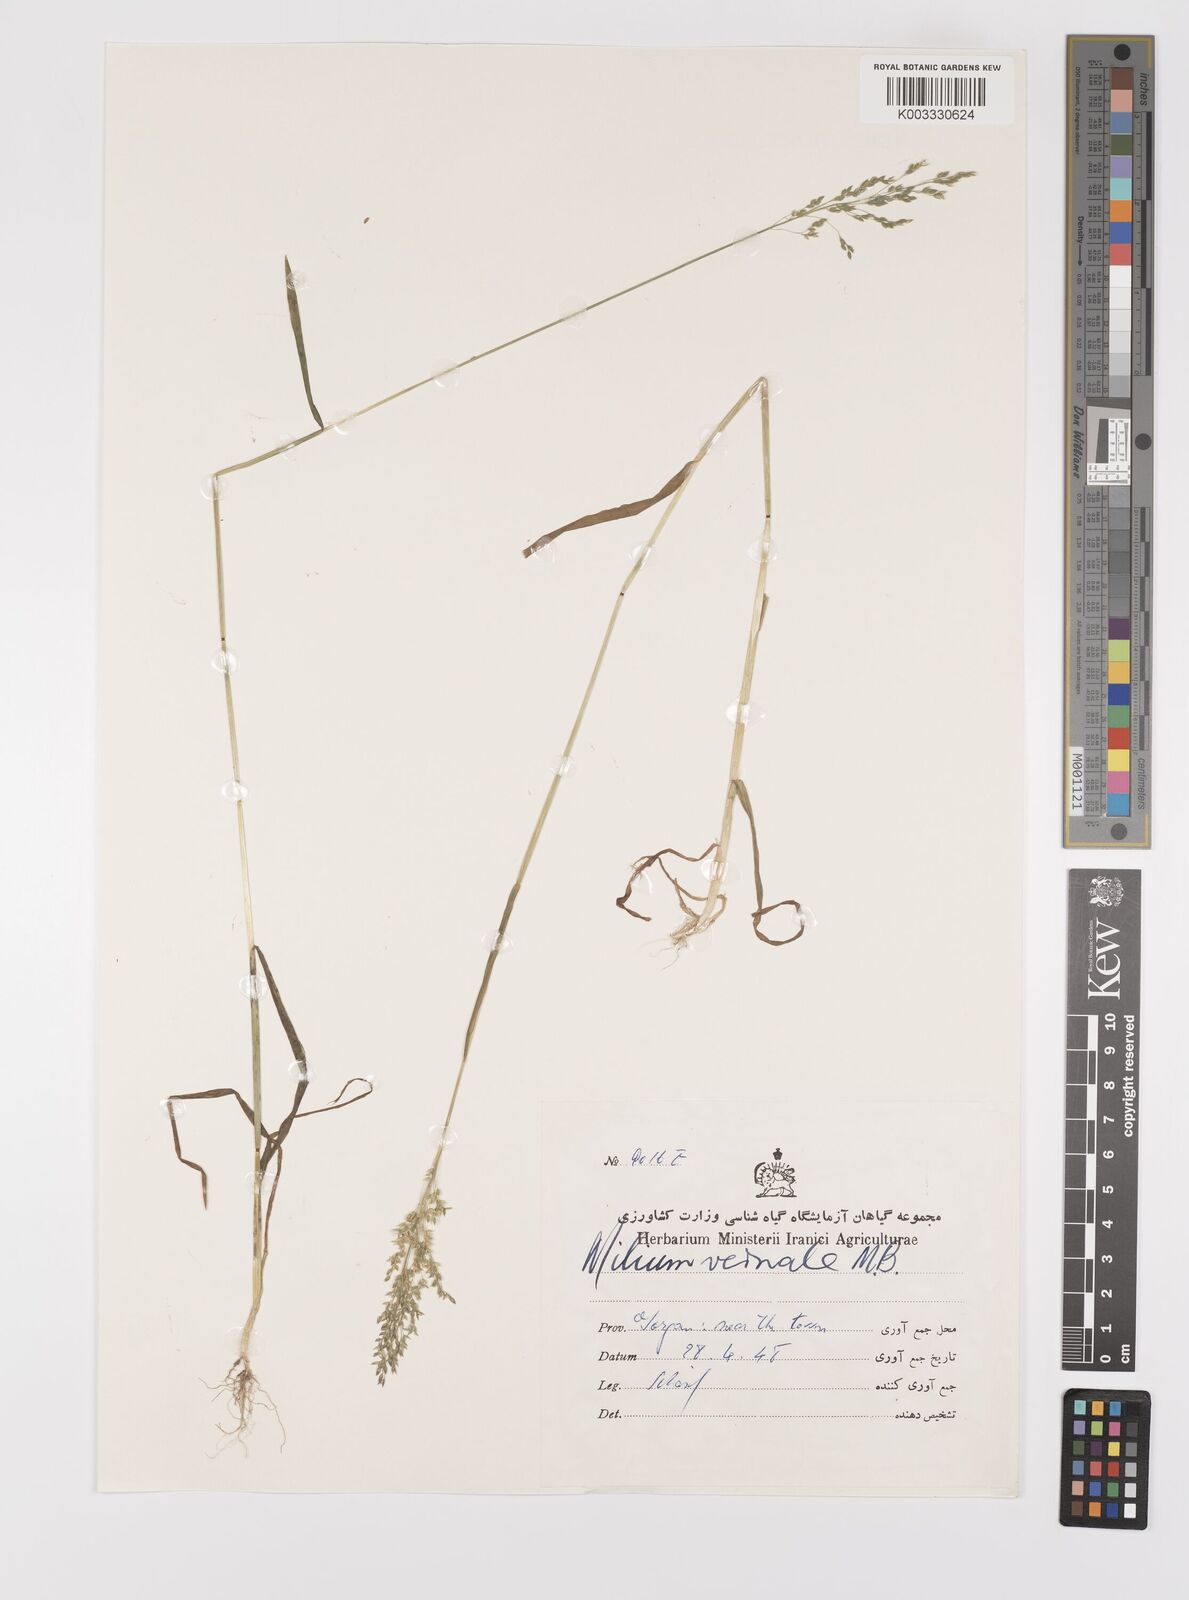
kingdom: Plantae
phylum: Tracheophyta
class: Liliopsida
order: Poales
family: Poaceae
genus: Milium
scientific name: Milium vernale
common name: Early millet
